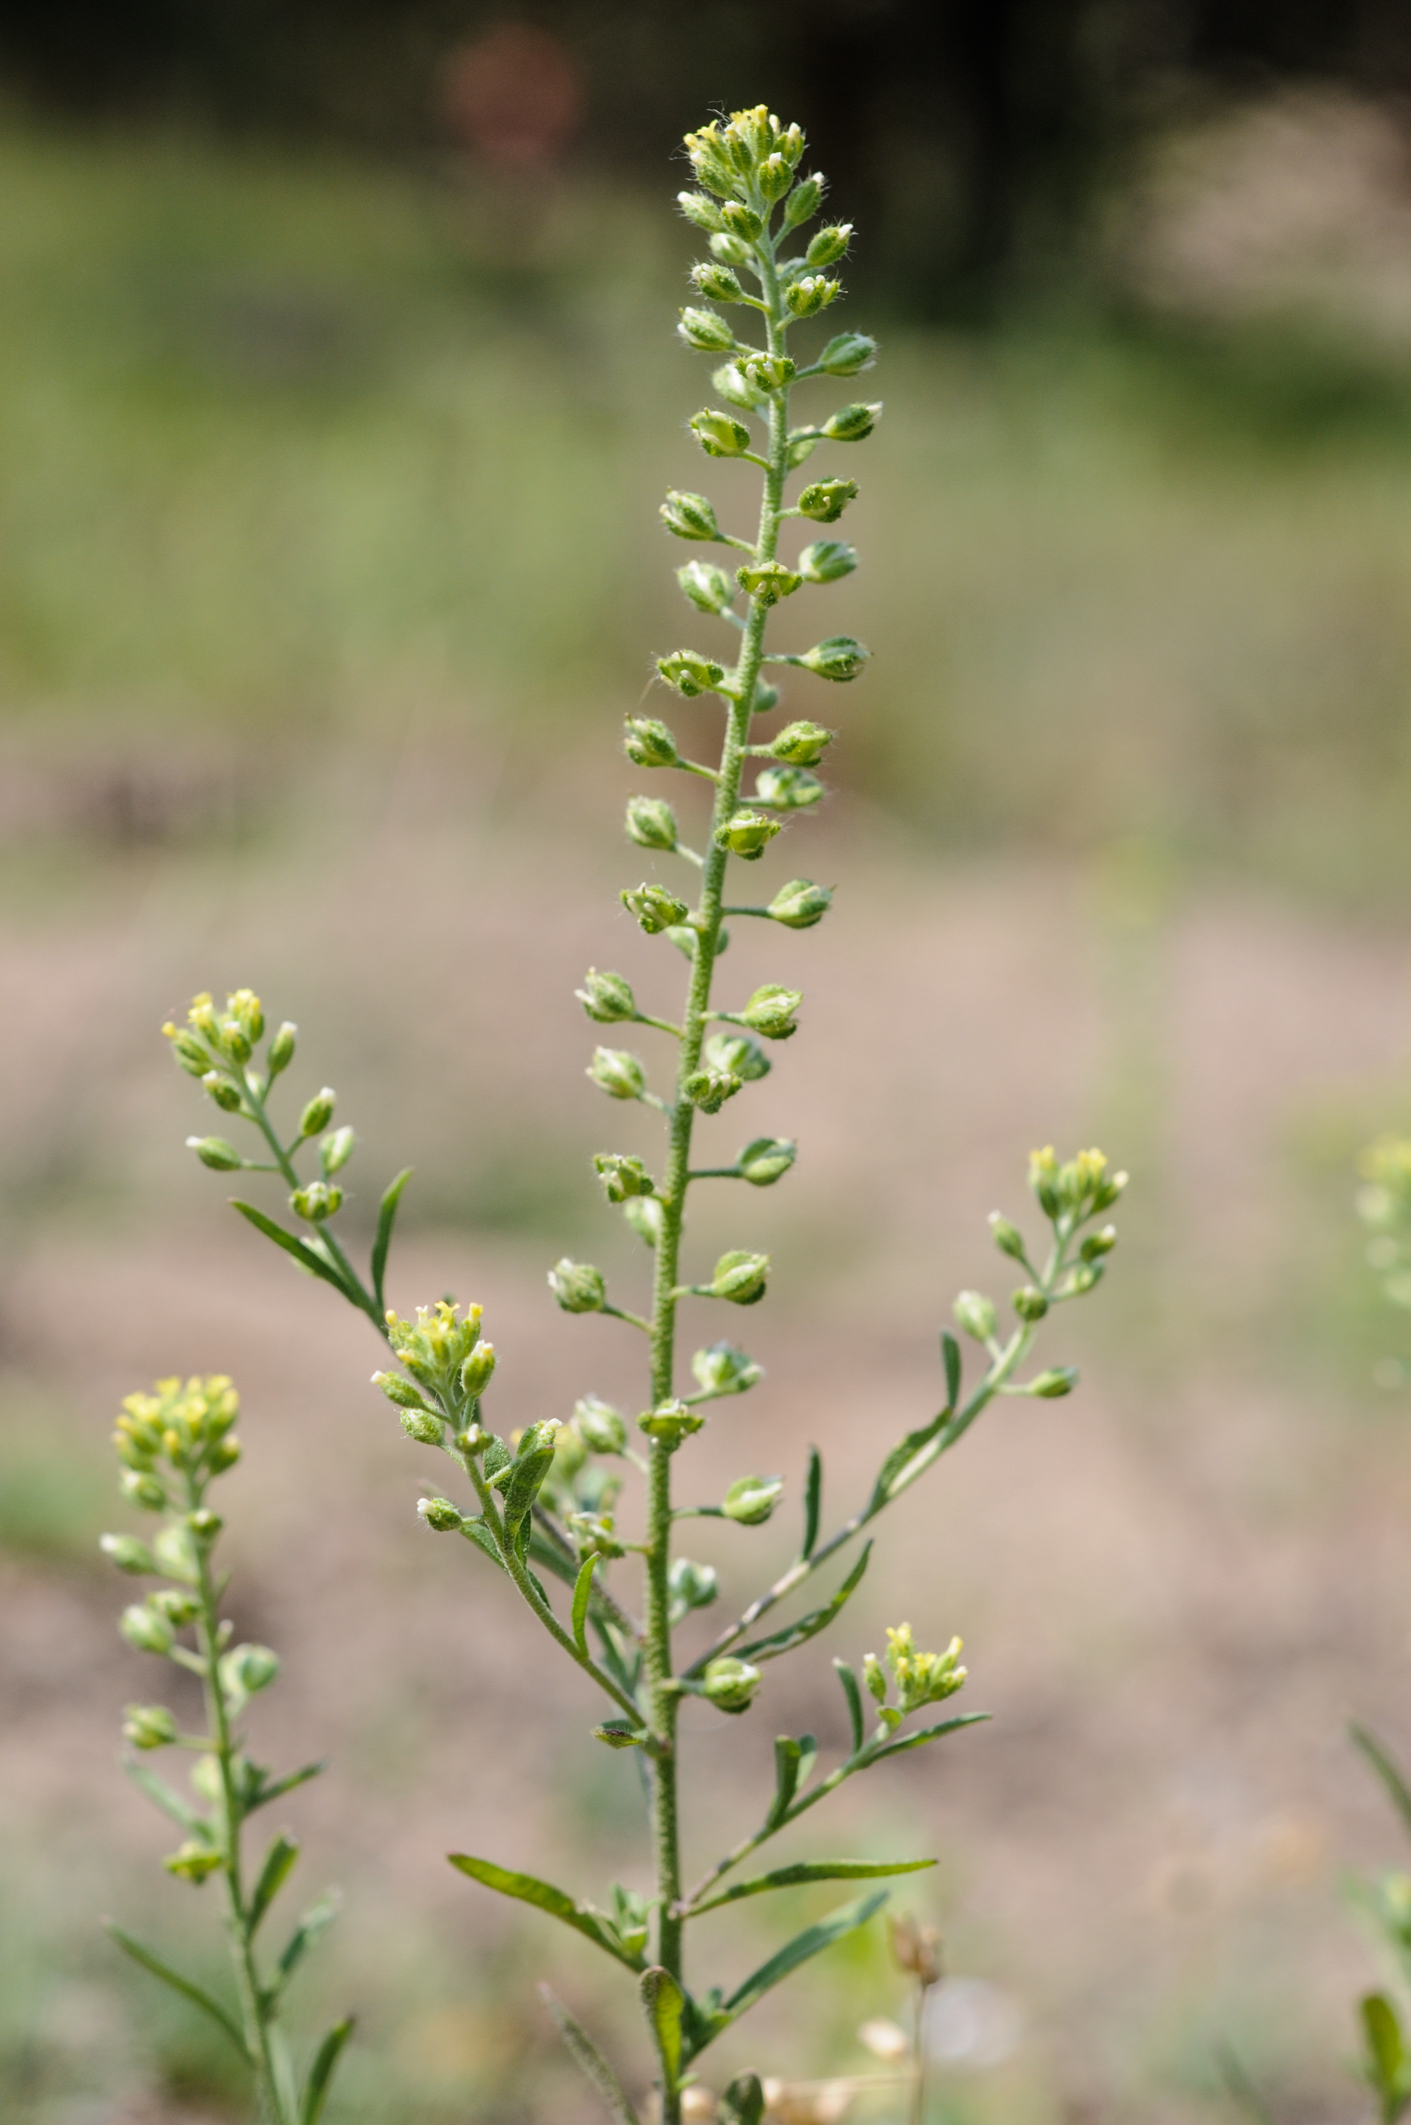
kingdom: Plantae
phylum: Tracheophyta
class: Magnoliopsida
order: Brassicales
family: Brassicaceae
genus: Alyssum
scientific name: Alyssum alyssoides
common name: Small alison
